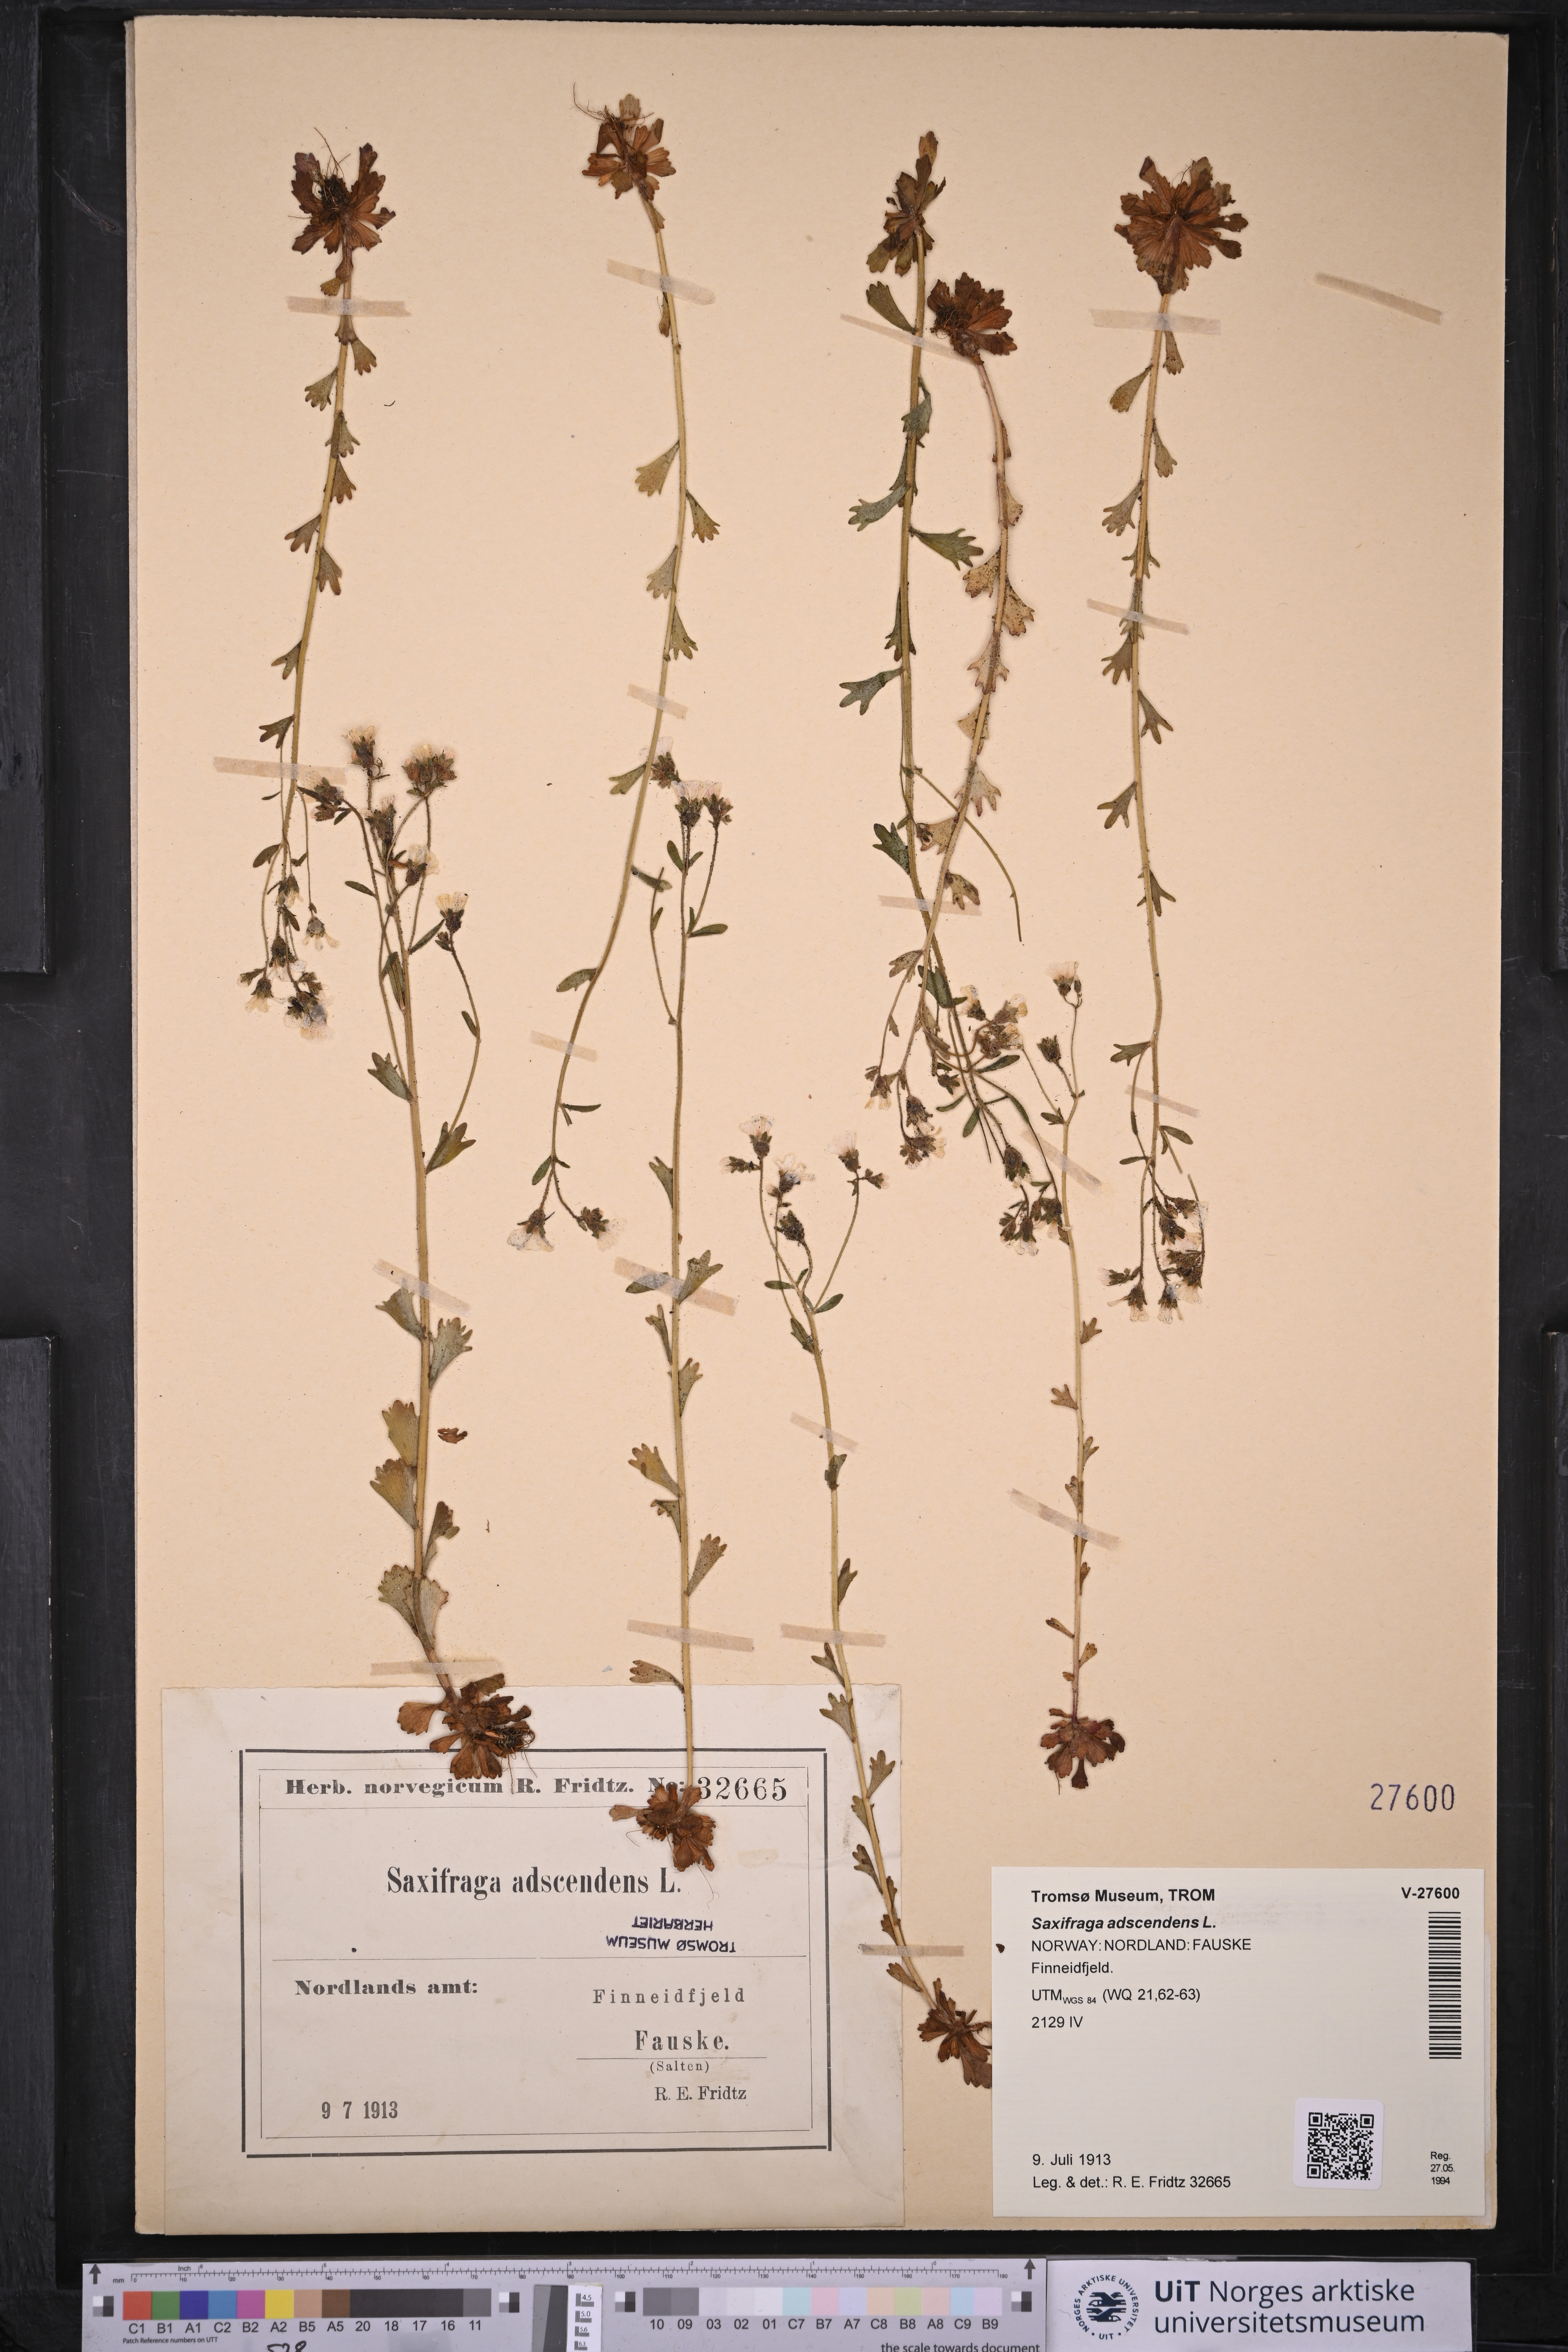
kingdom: Plantae
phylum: Tracheophyta
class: Magnoliopsida
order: Saxifragales
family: Saxifragaceae
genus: Saxifraga
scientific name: Saxifraga adscendens
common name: Ascending saxifrage
